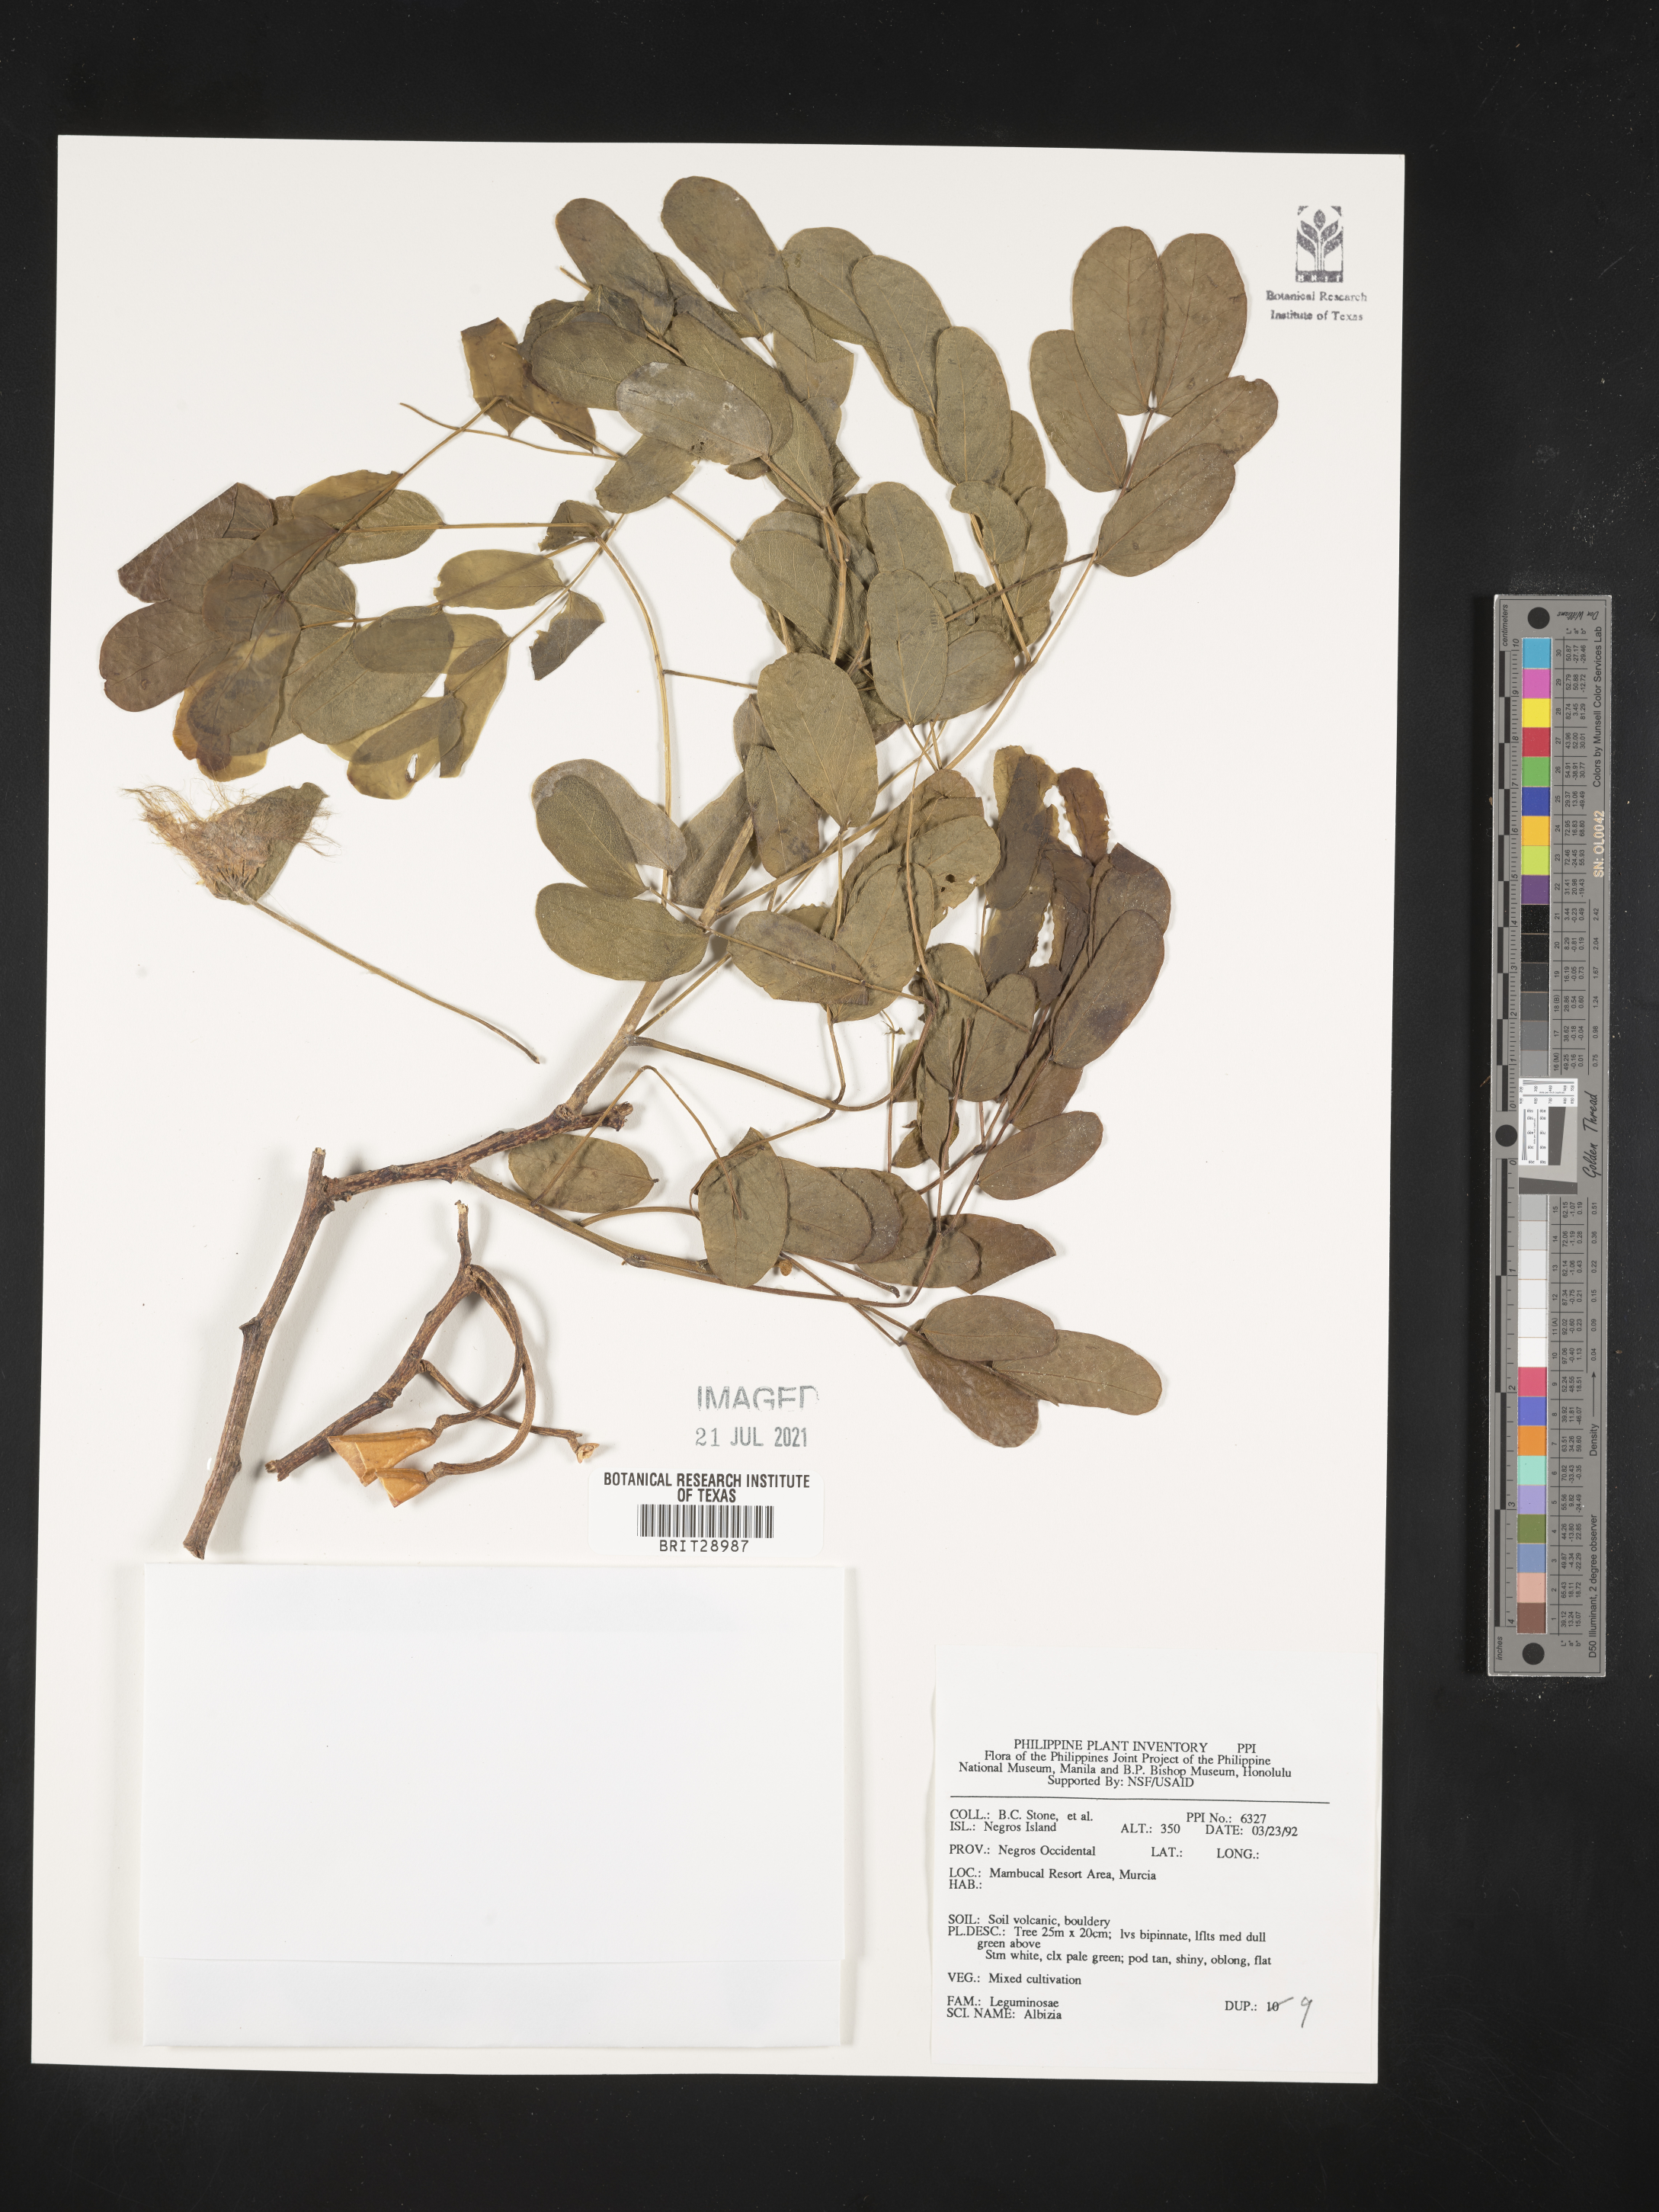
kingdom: Plantae
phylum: Tracheophyta
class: Magnoliopsida
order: Fabales
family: Fabaceae
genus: Albizia
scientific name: Albizia
